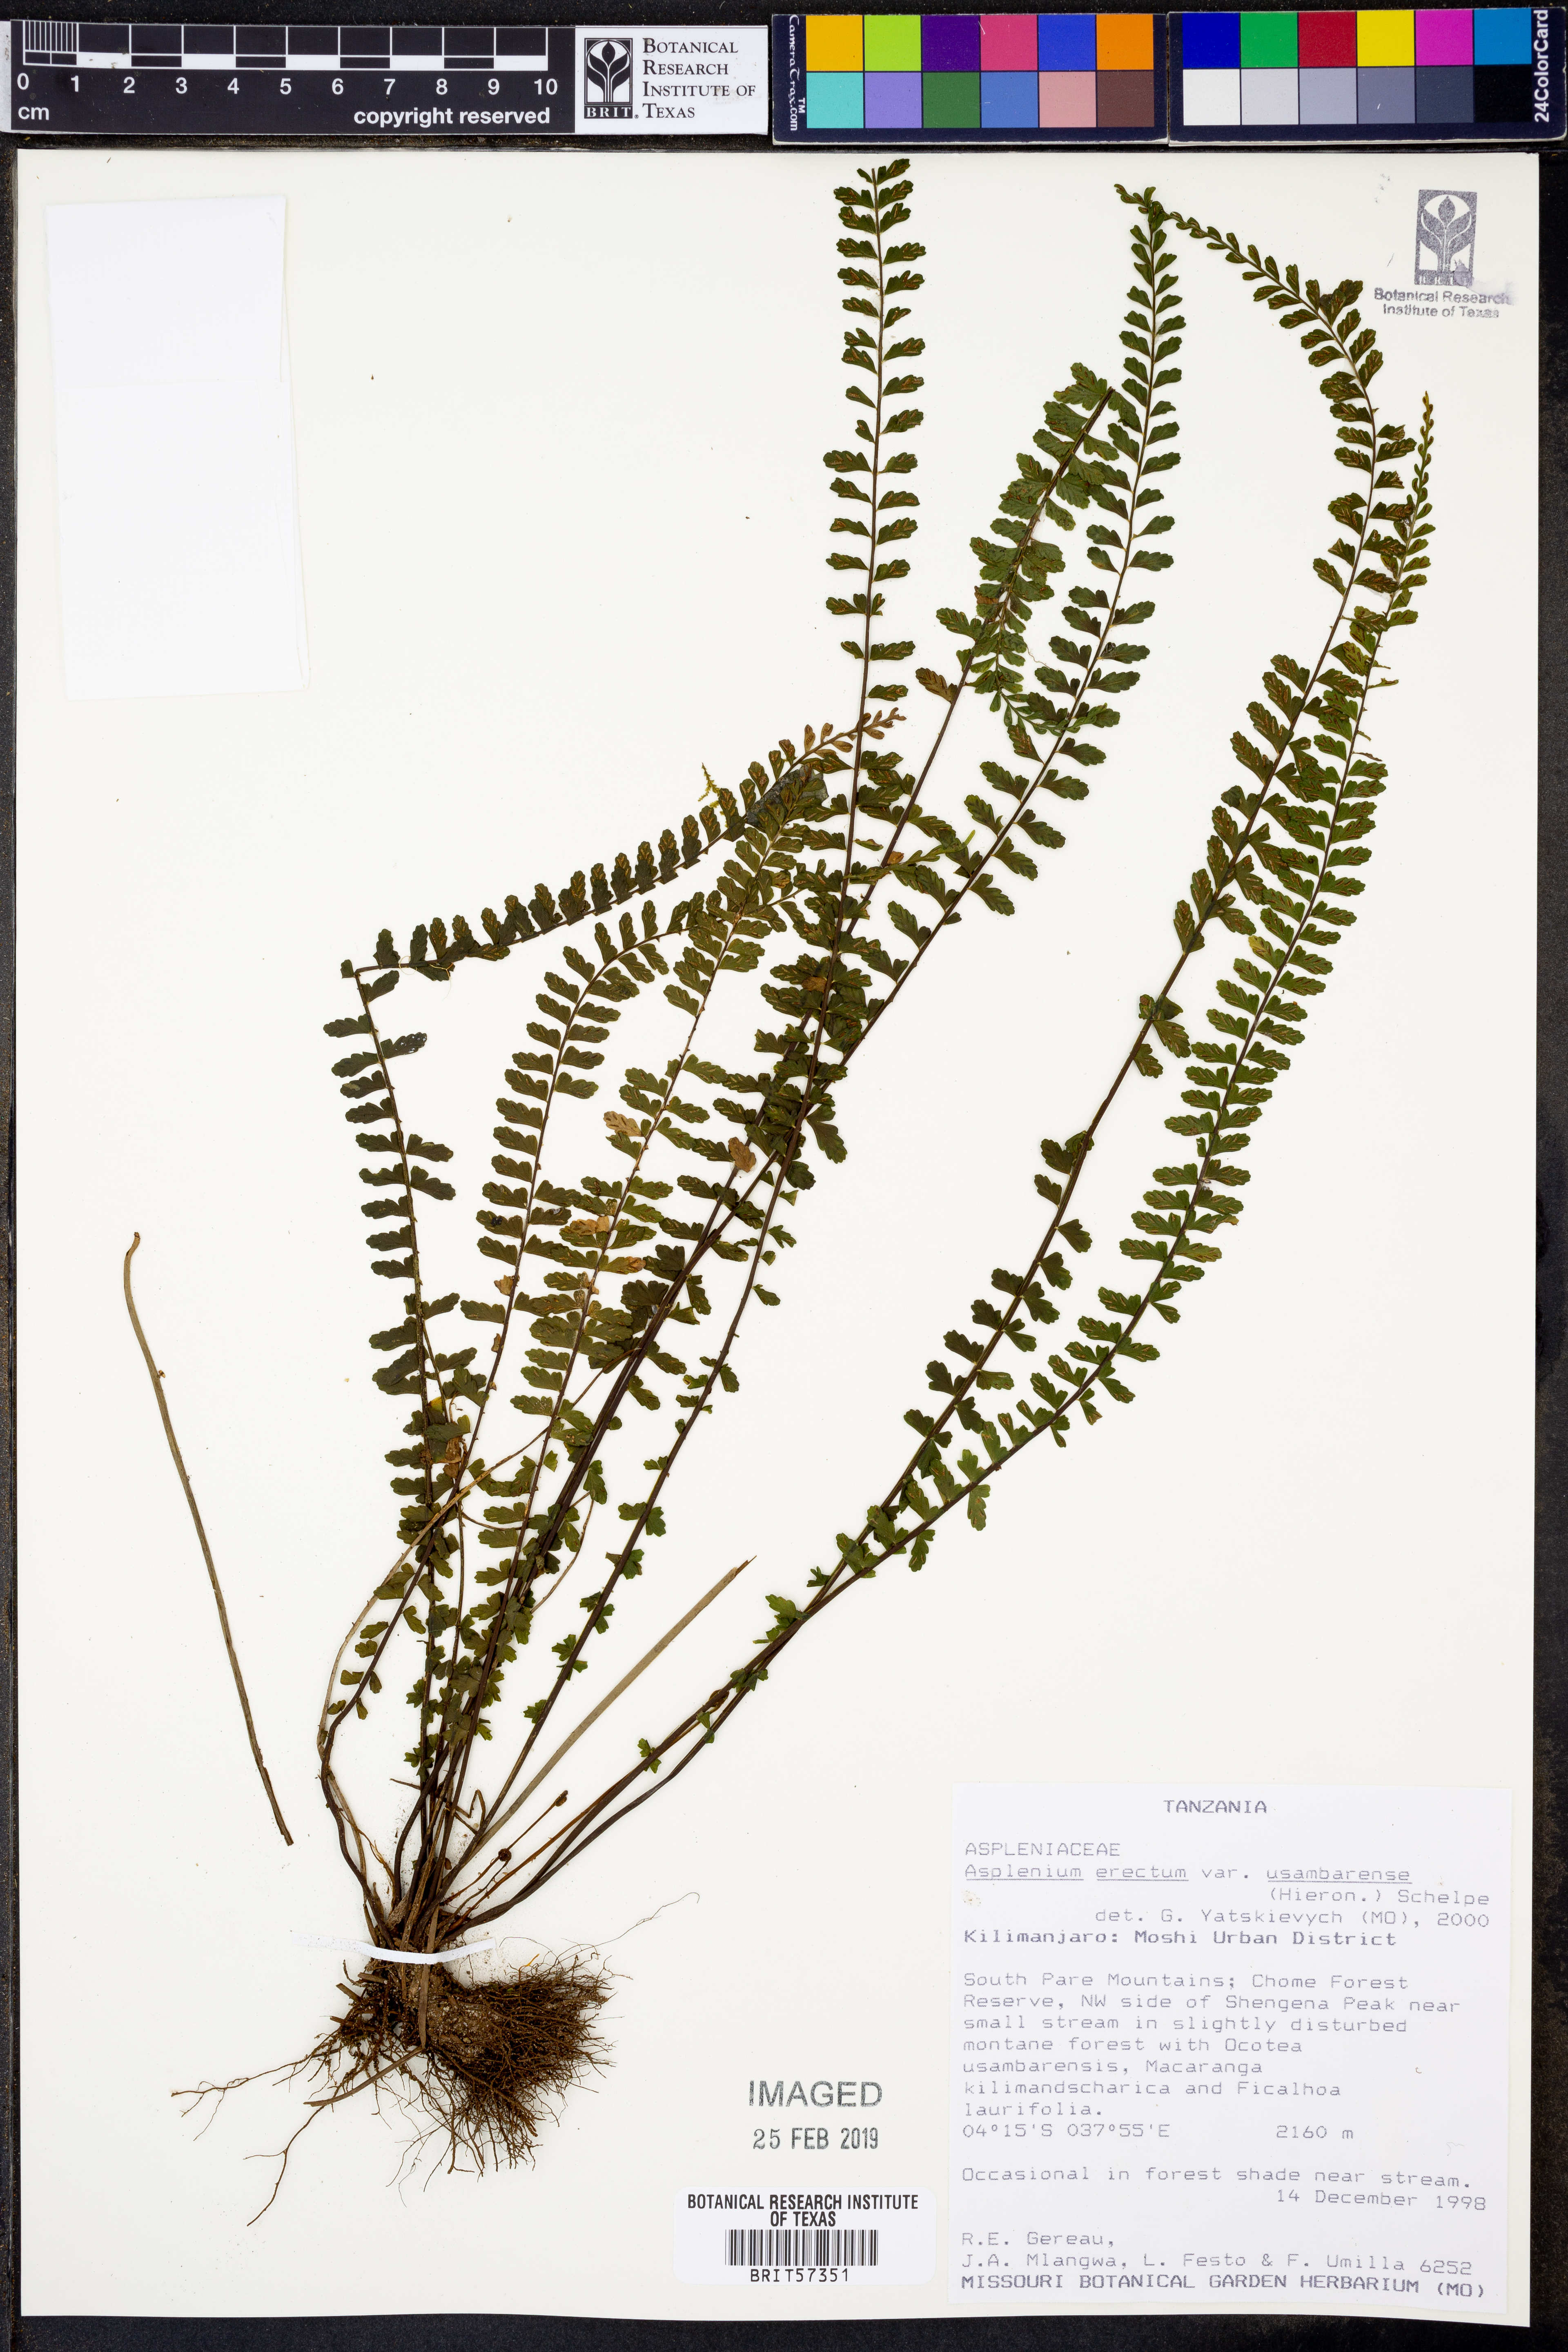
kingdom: Plantae
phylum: Tracheophyta
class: Polypodiopsida
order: Polypodiales
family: Aspleniaceae
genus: Asplenium
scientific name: Asplenium erectum
